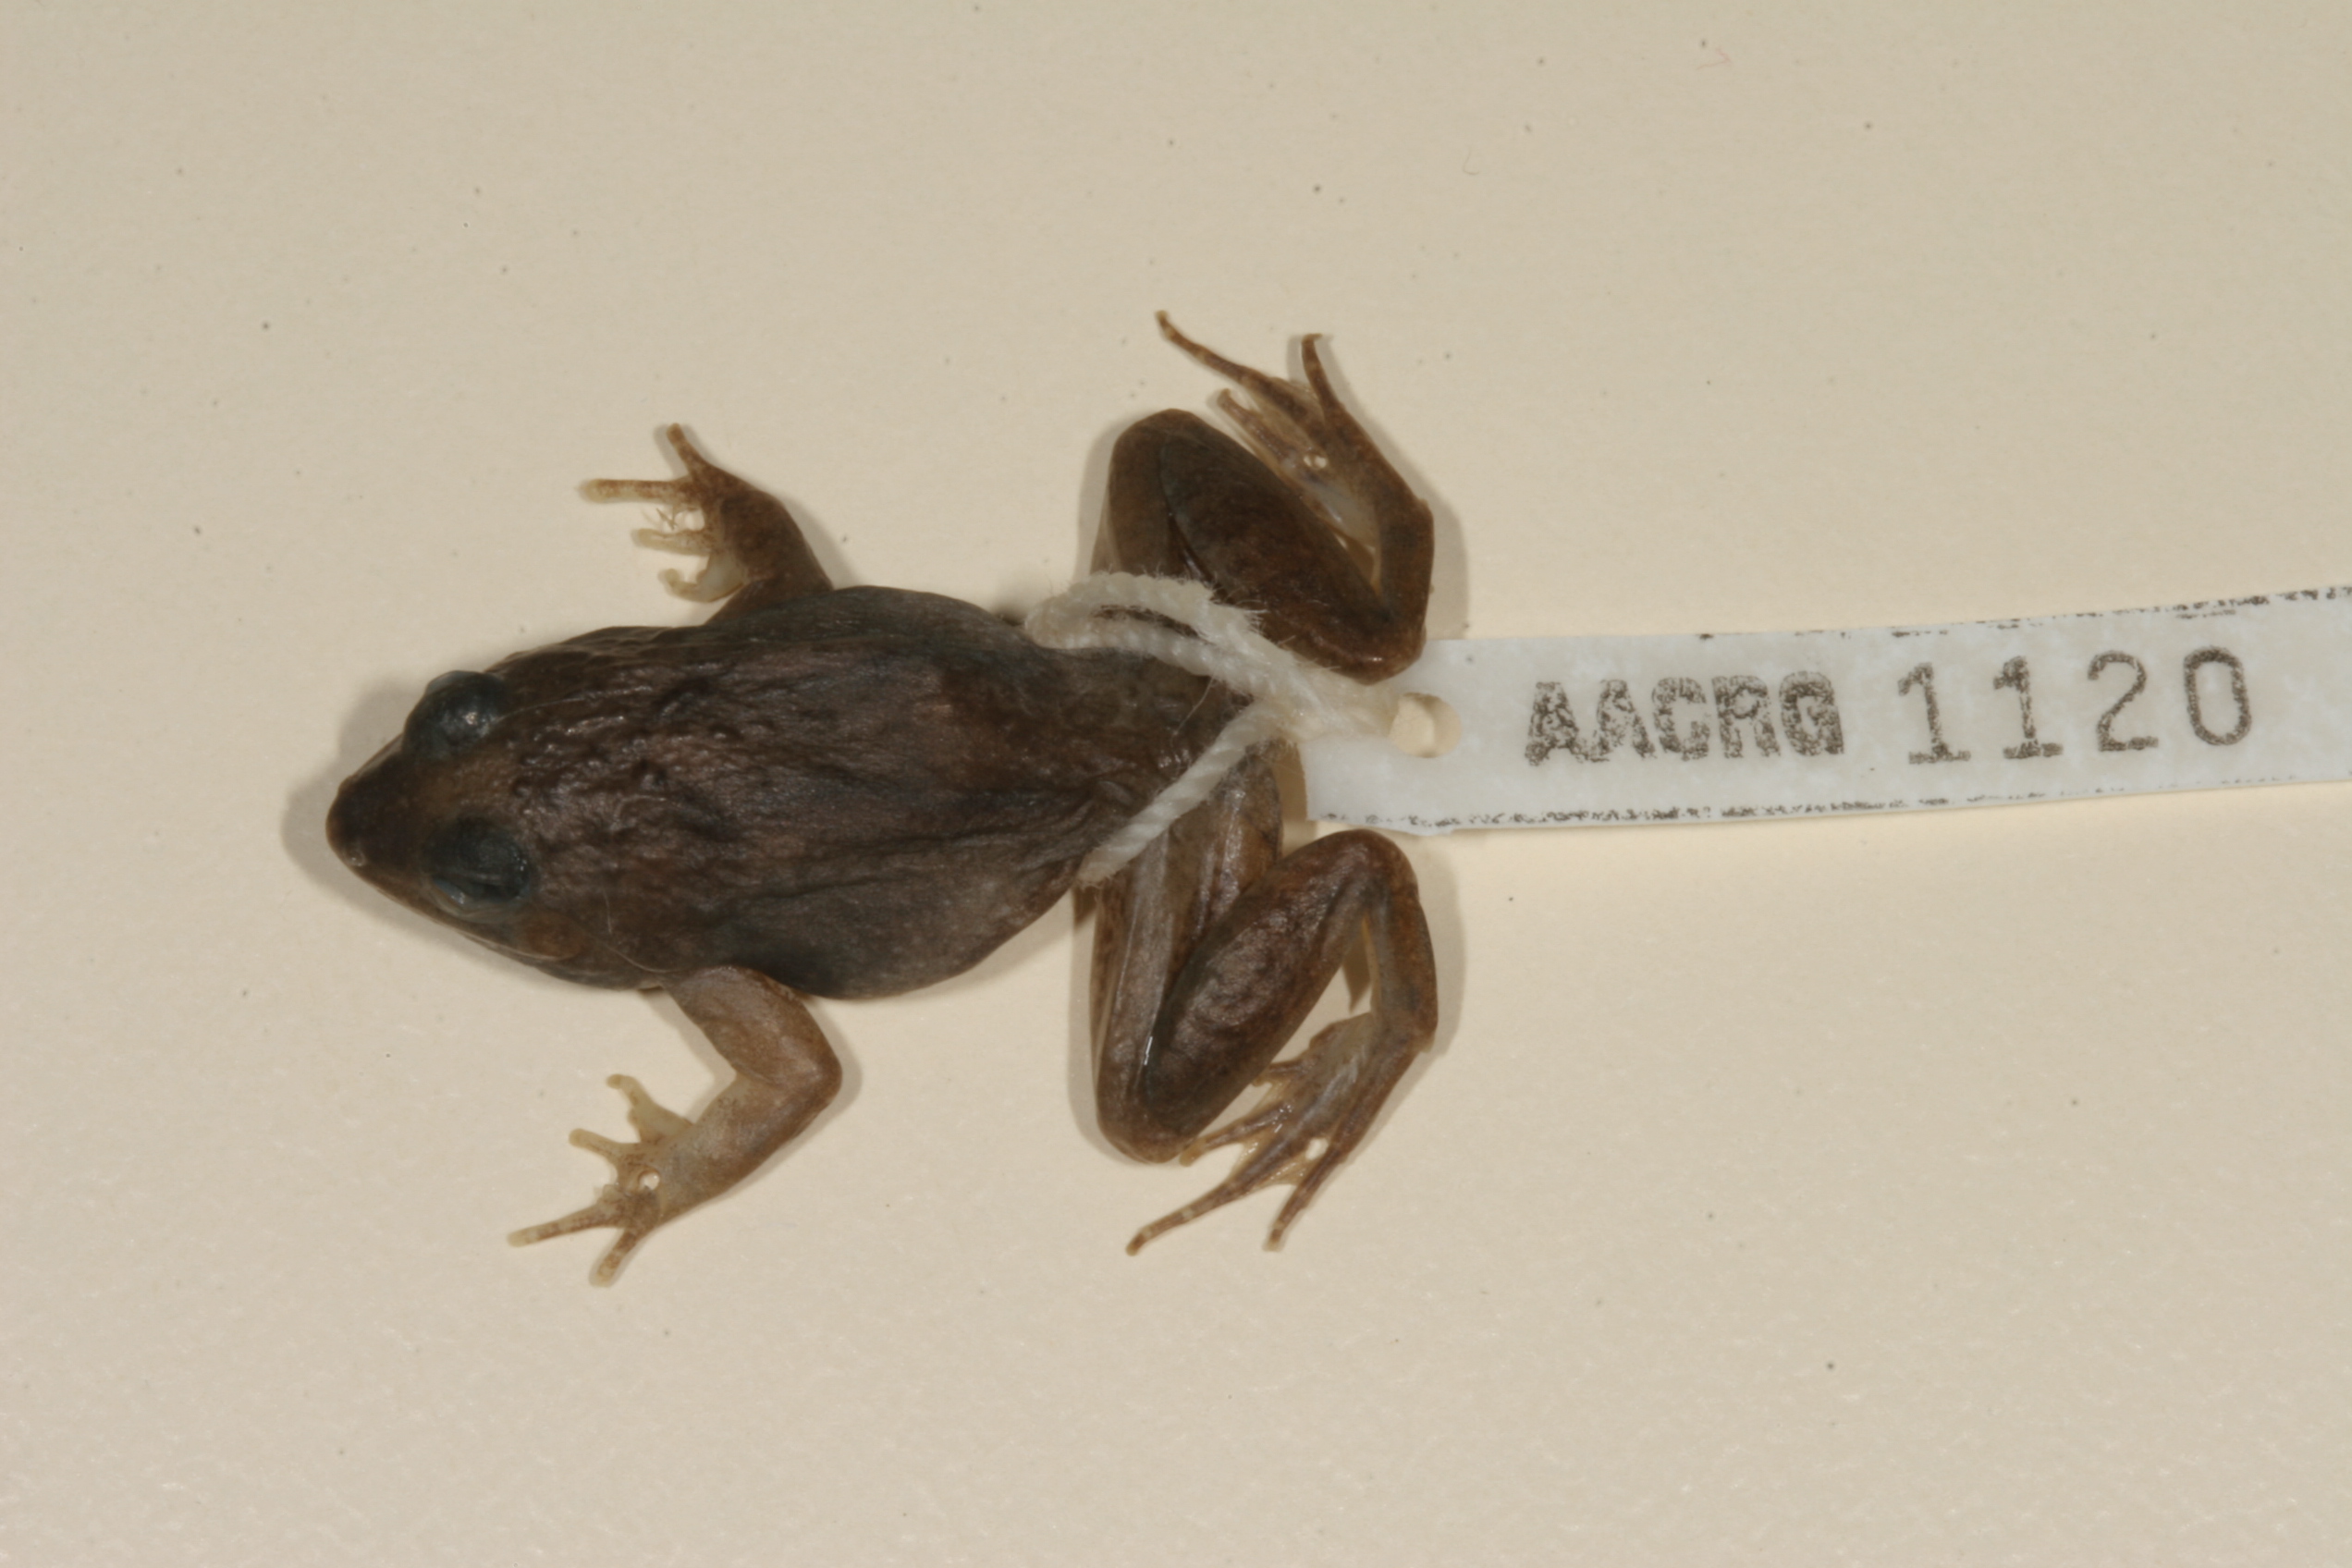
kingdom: Animalia
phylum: Chordata
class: Amphibia
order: Anura
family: Phrynobatrachidae
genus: Phrynobatrachus
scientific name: Phrynobatrachus natalensis
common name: Snoring puddle frog
